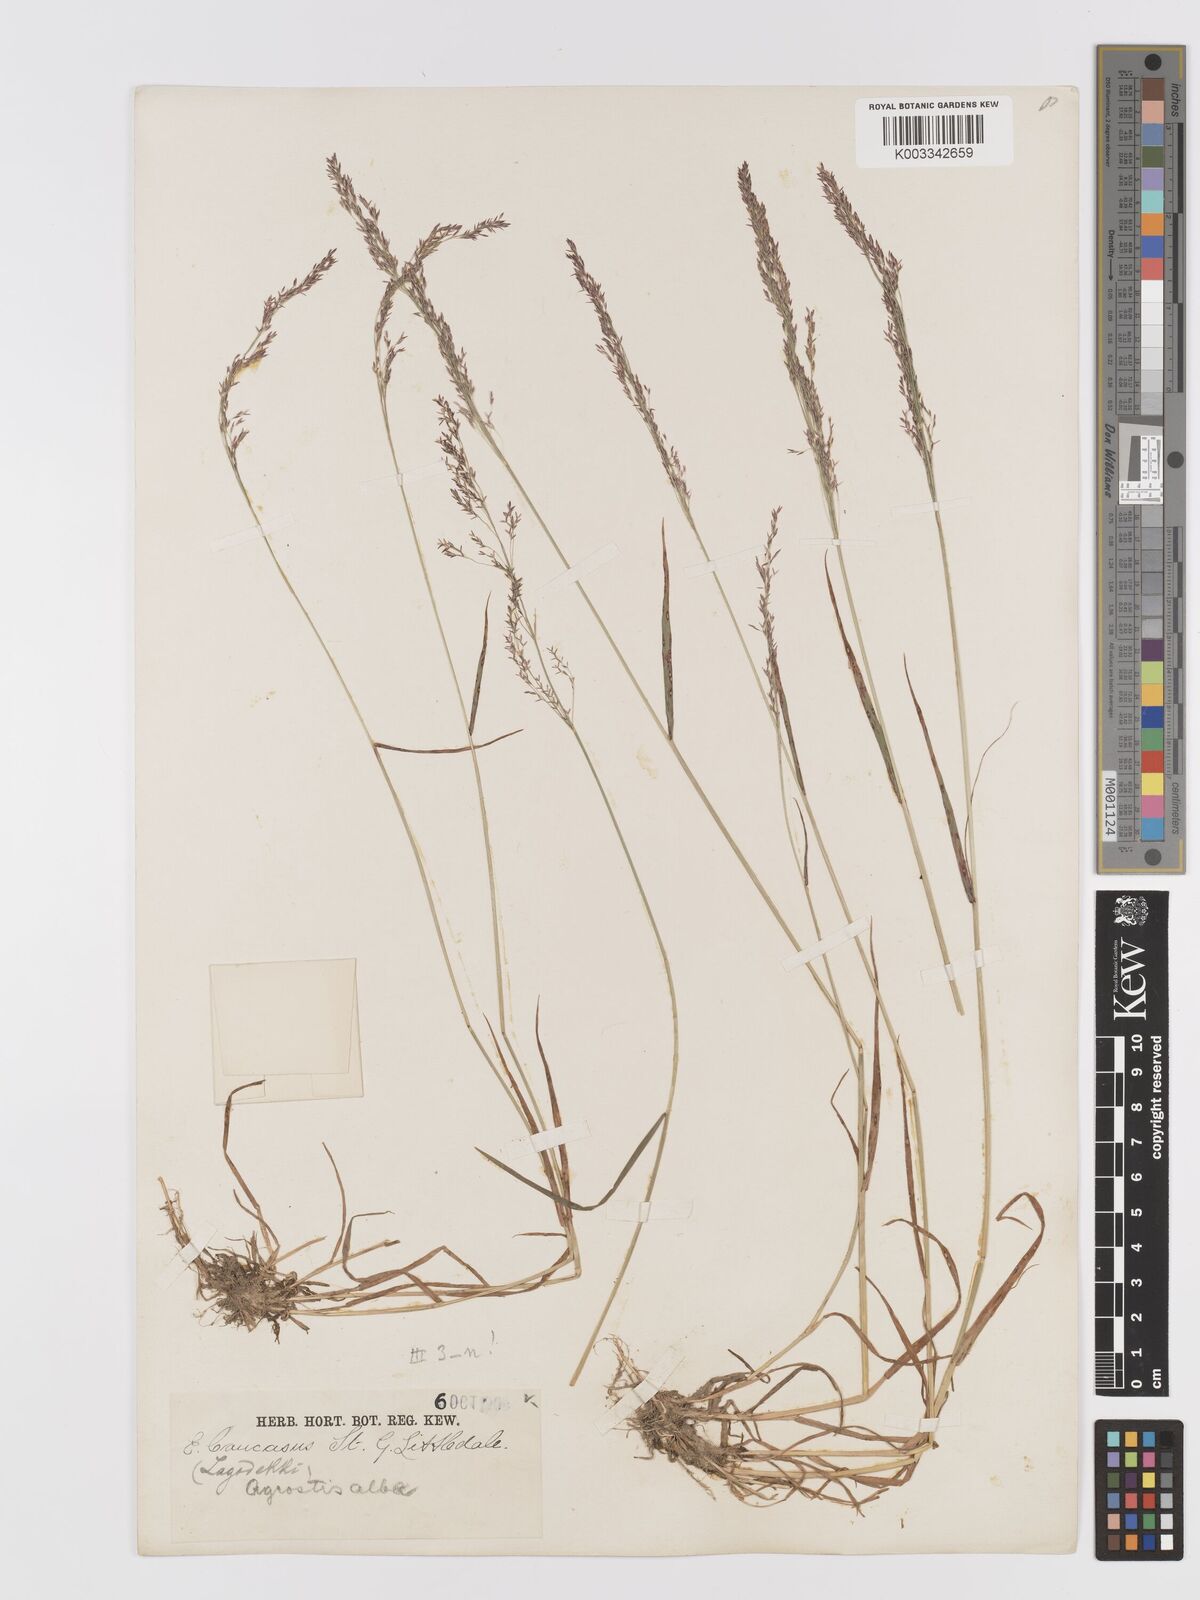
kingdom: Plantae
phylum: Tracheophyta
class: Liliopsida
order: Poales
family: Poaceae
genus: Agrostis
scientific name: Agrostis capillaris
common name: Colonial bentgrass
